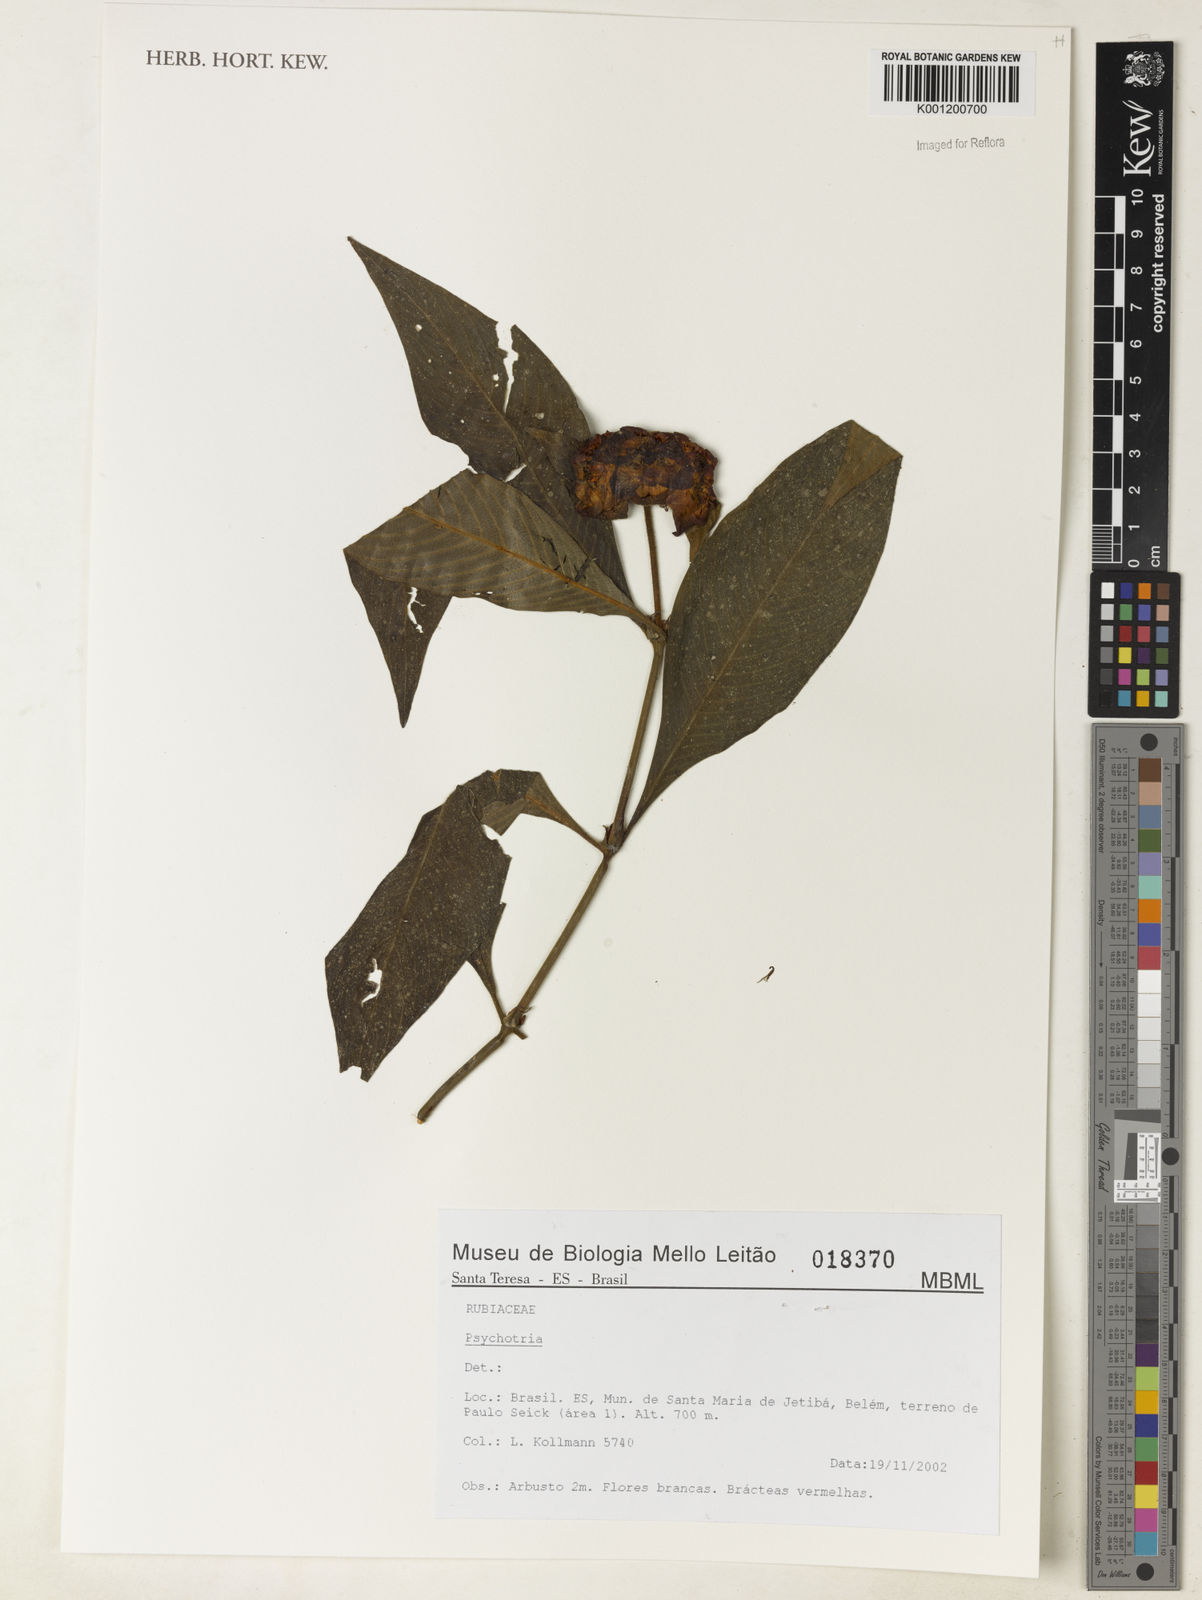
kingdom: Plantae
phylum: Tracheophyta
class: Magnoliopsida
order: Gentianales
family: Rubiaceae
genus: Psychotria
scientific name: Psychotria
